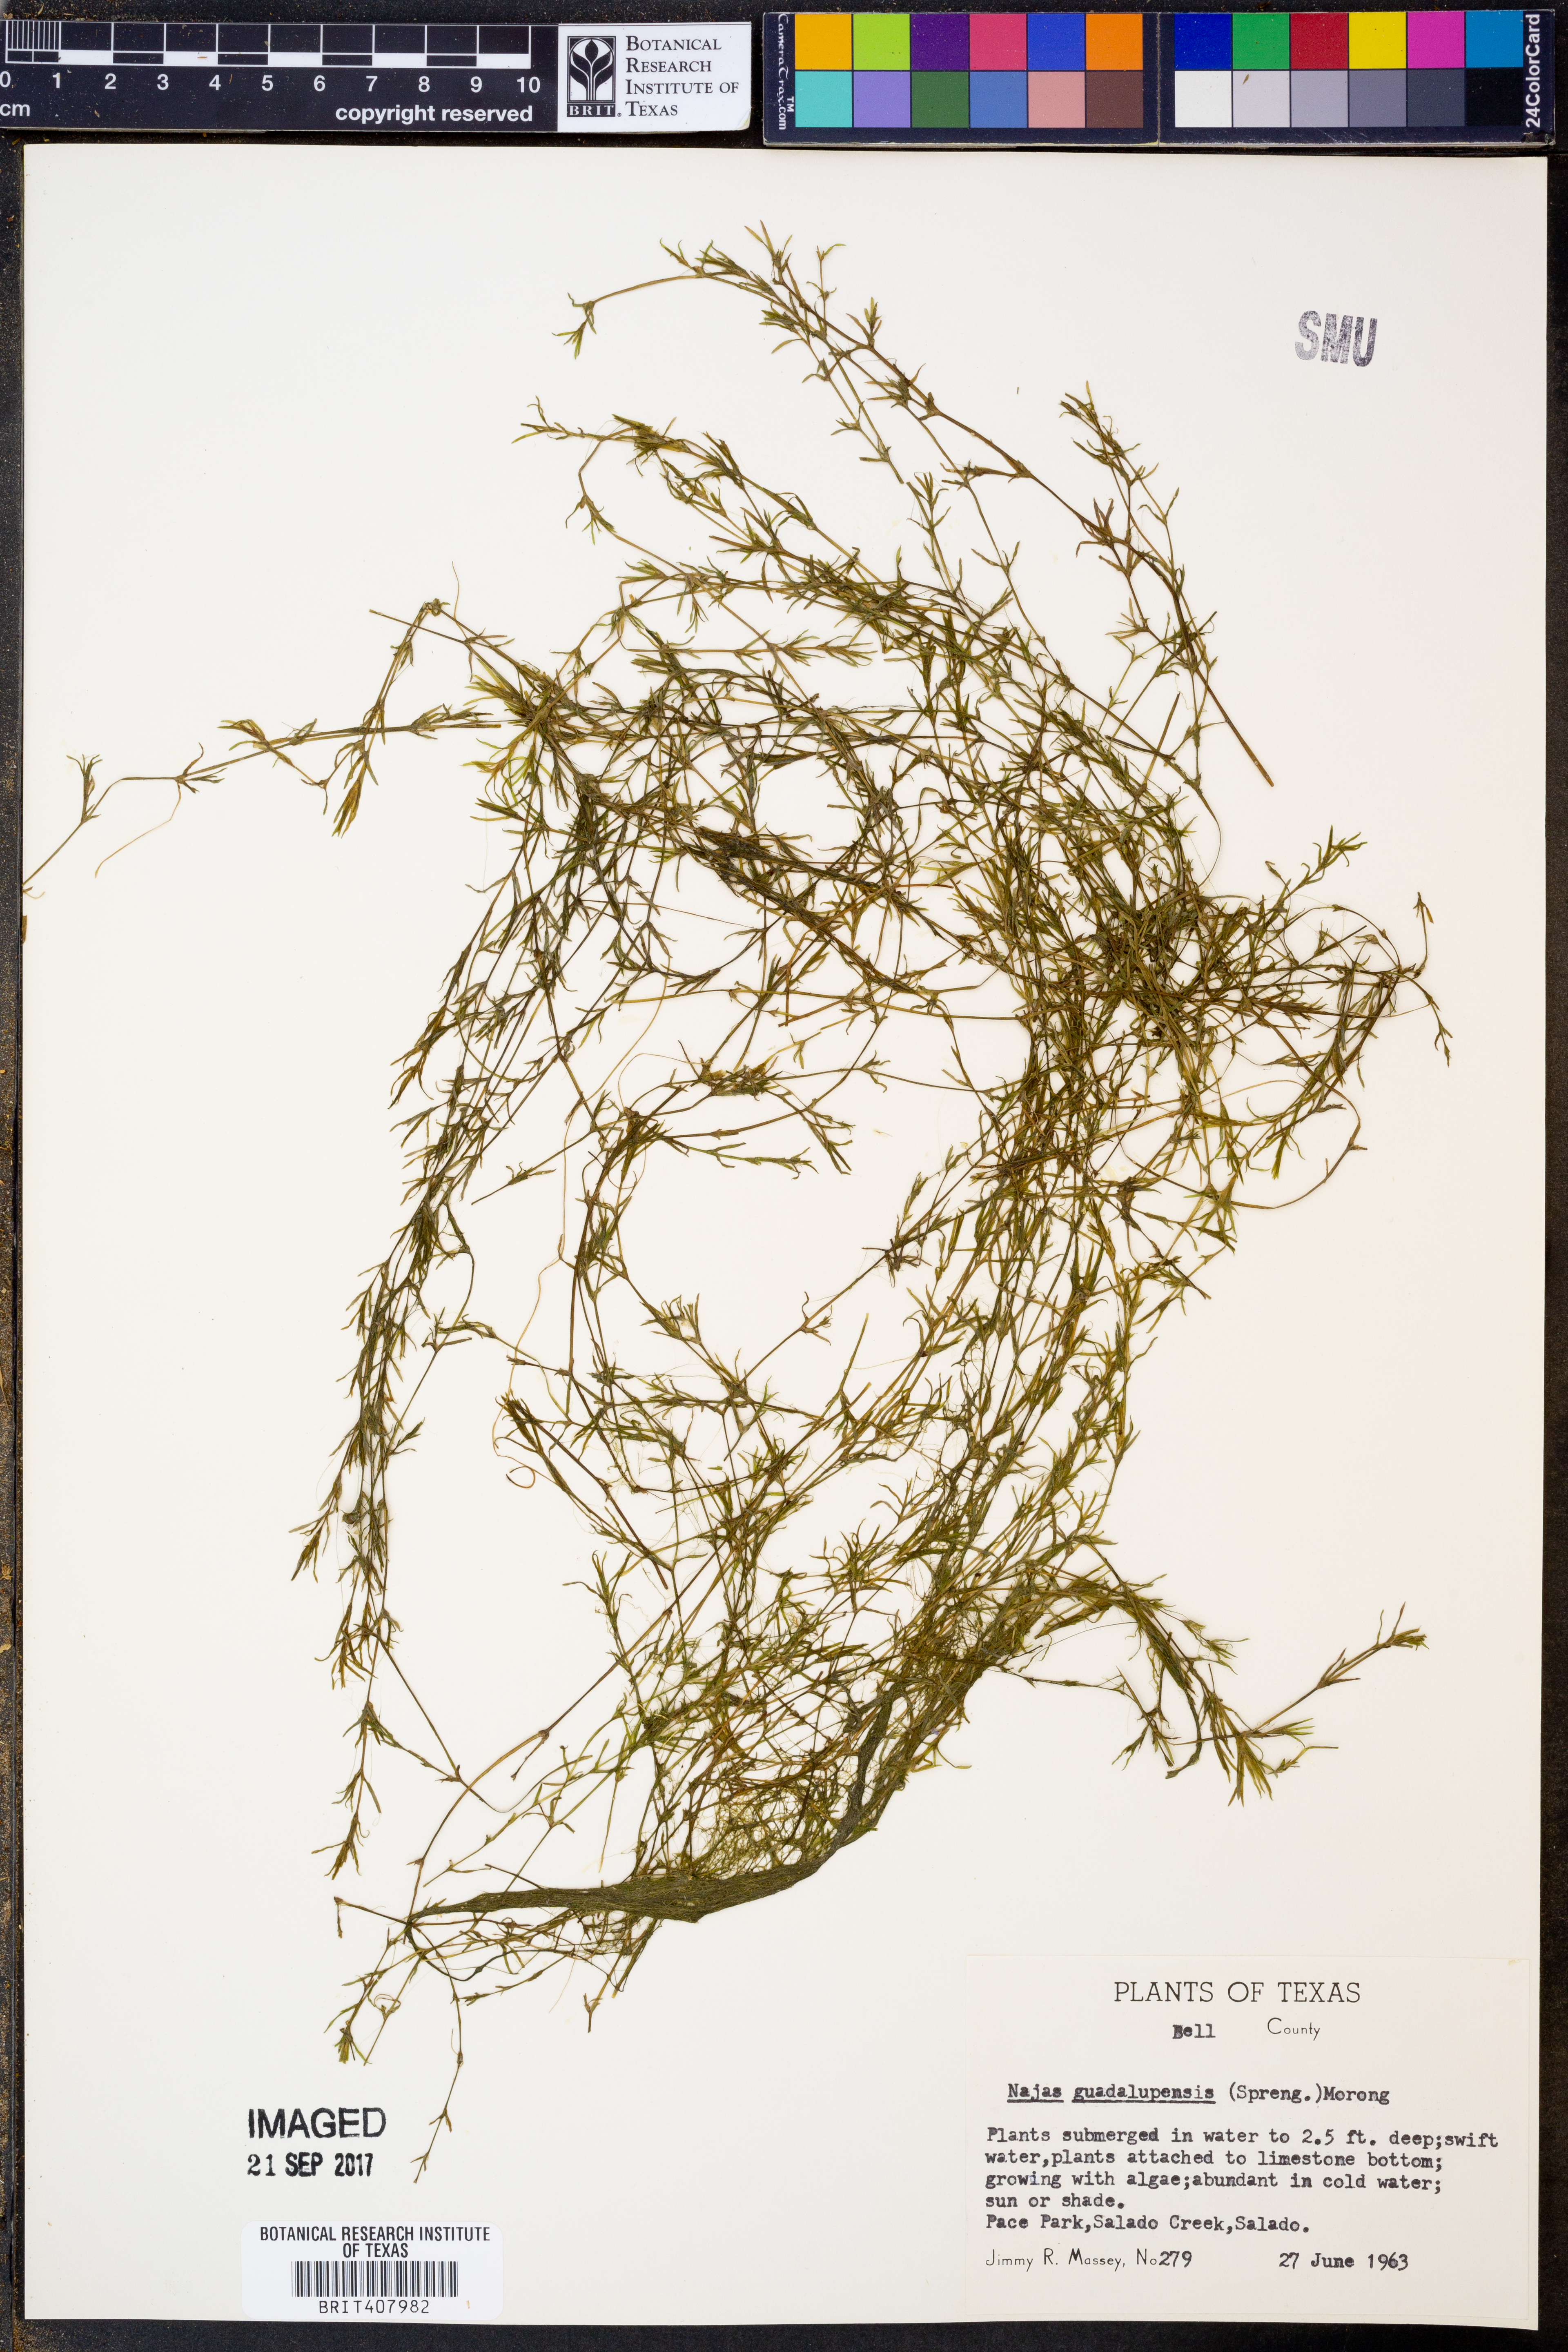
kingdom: Plantae
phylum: Tracheophyta
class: Liliopsida
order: Alismatales
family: Hydrocharitaceae
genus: Najas
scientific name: Najas guadalupensis
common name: Southern naiad
